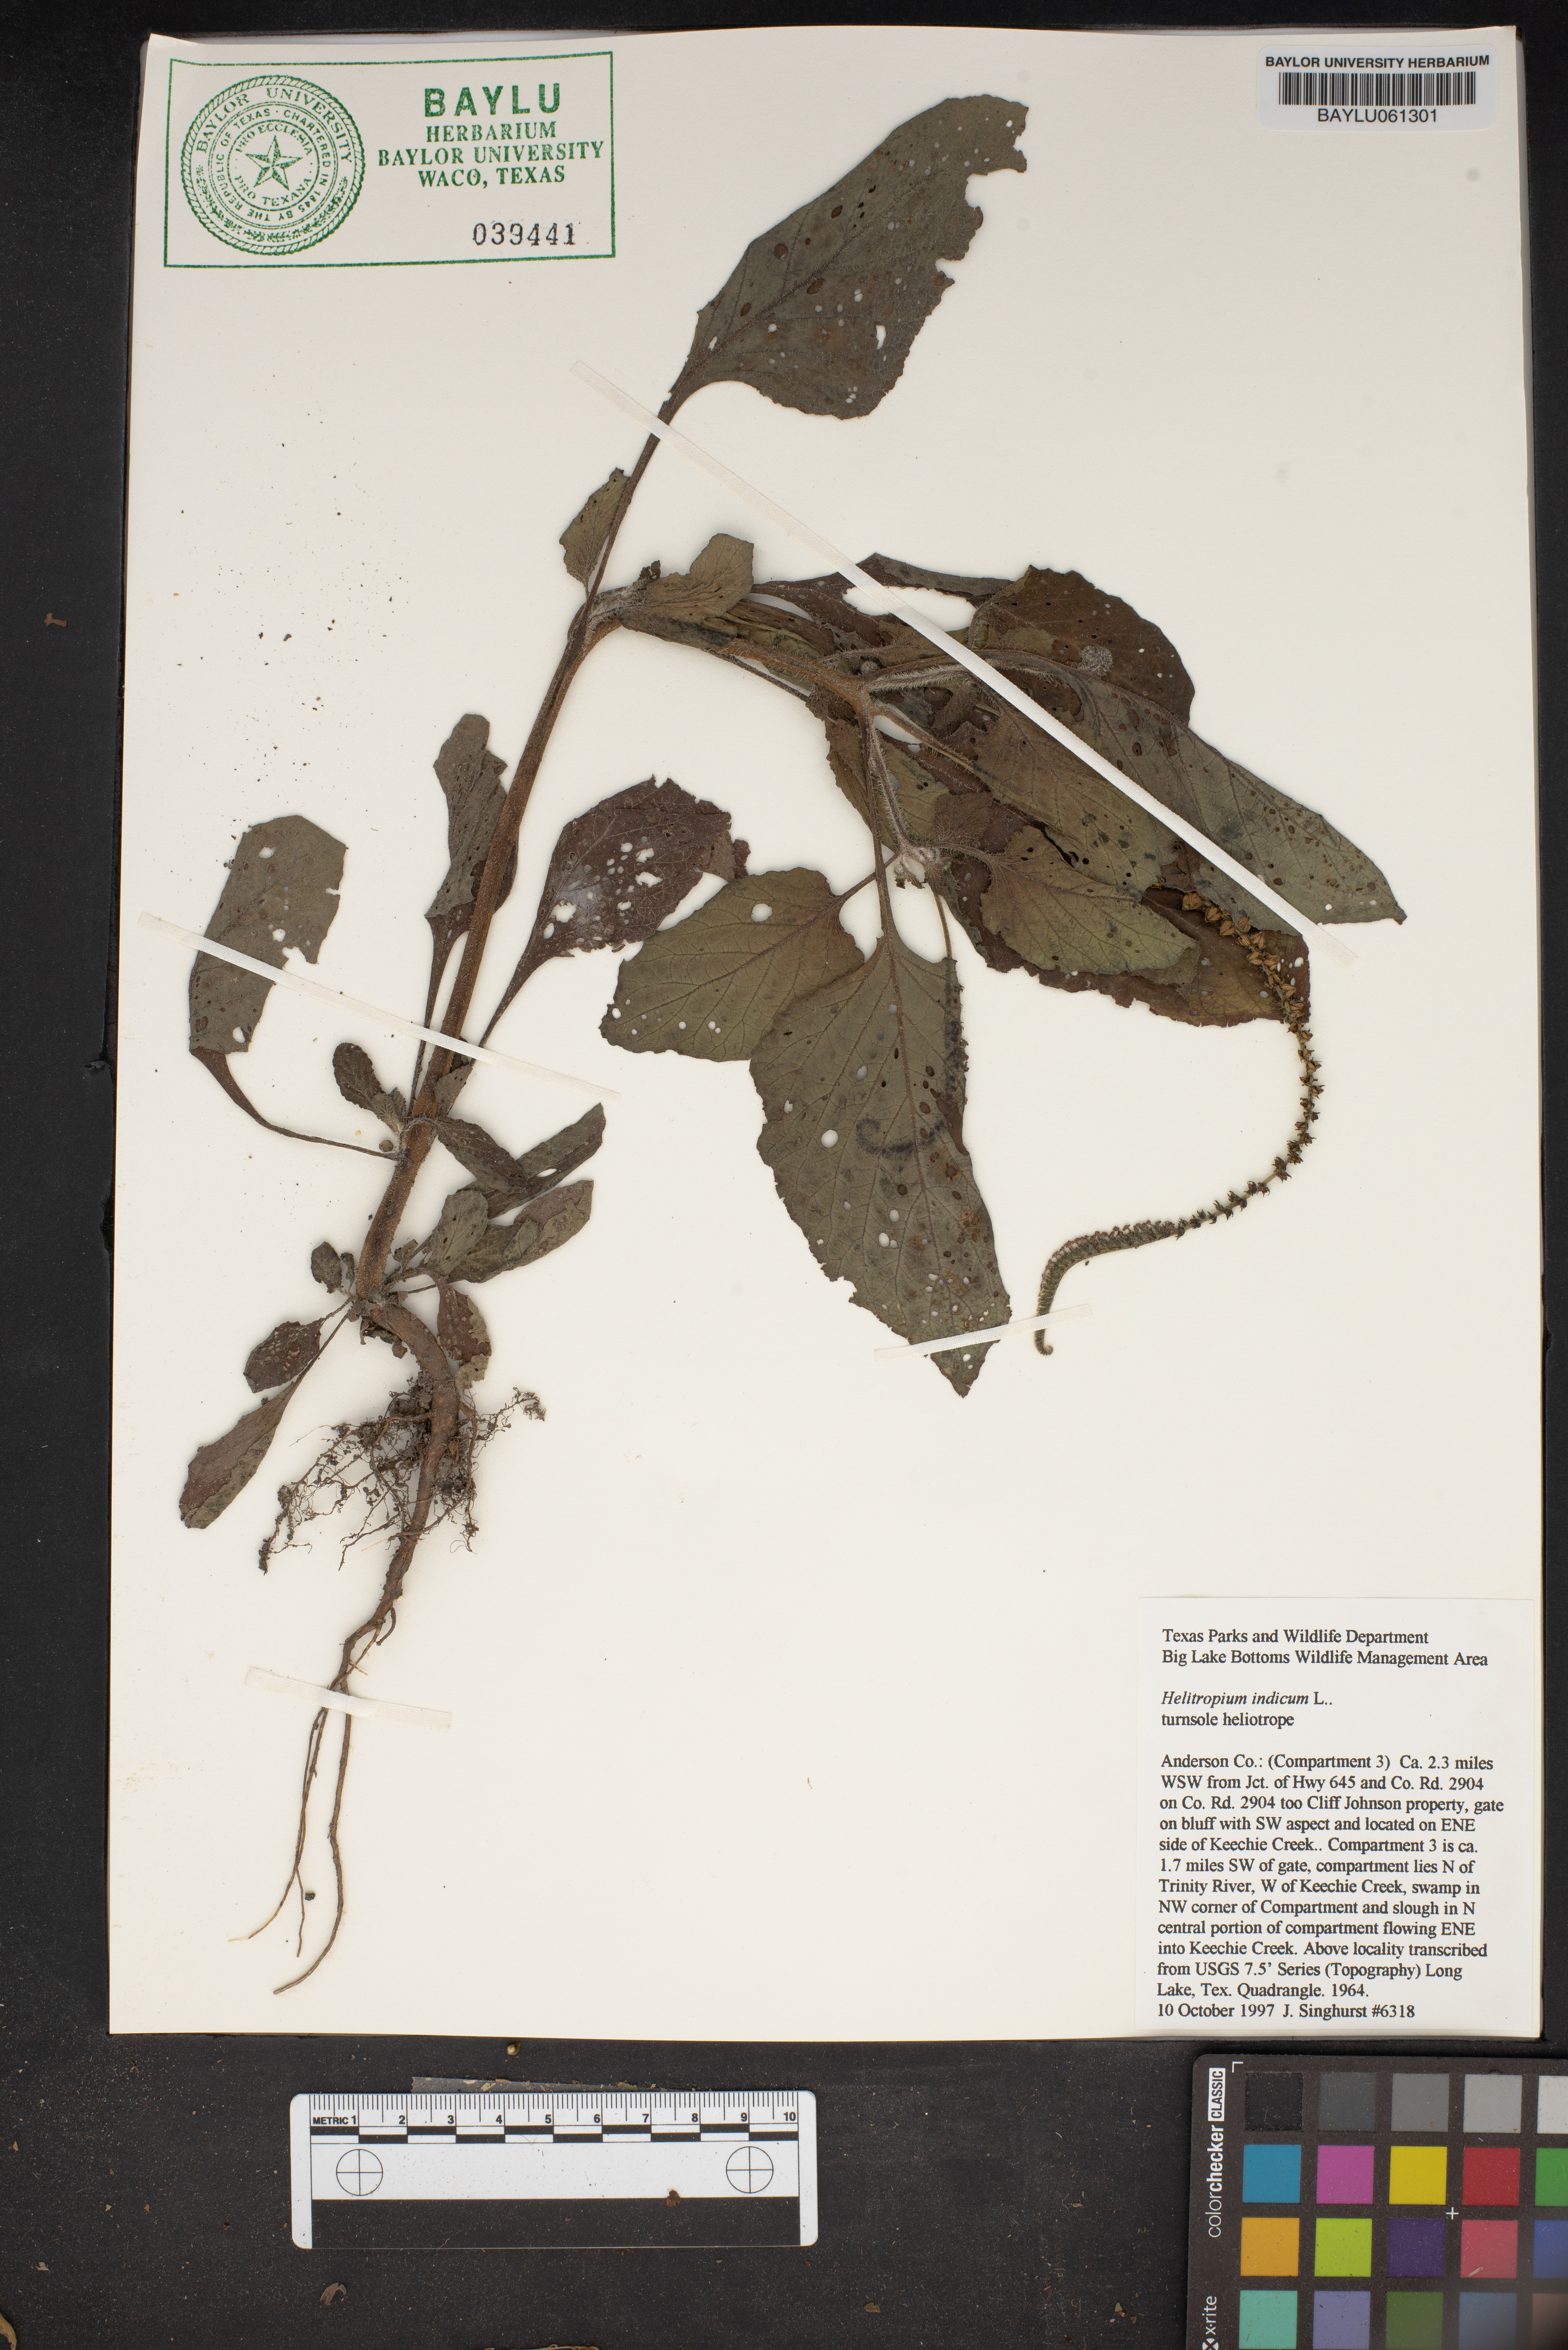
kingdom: Plantae
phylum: Tracheophyta
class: Magnoliopsida
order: Boraginales
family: Heliotropiaceae
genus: Heliotropium
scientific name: Heliotropium indicum
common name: Indian heliotrope
